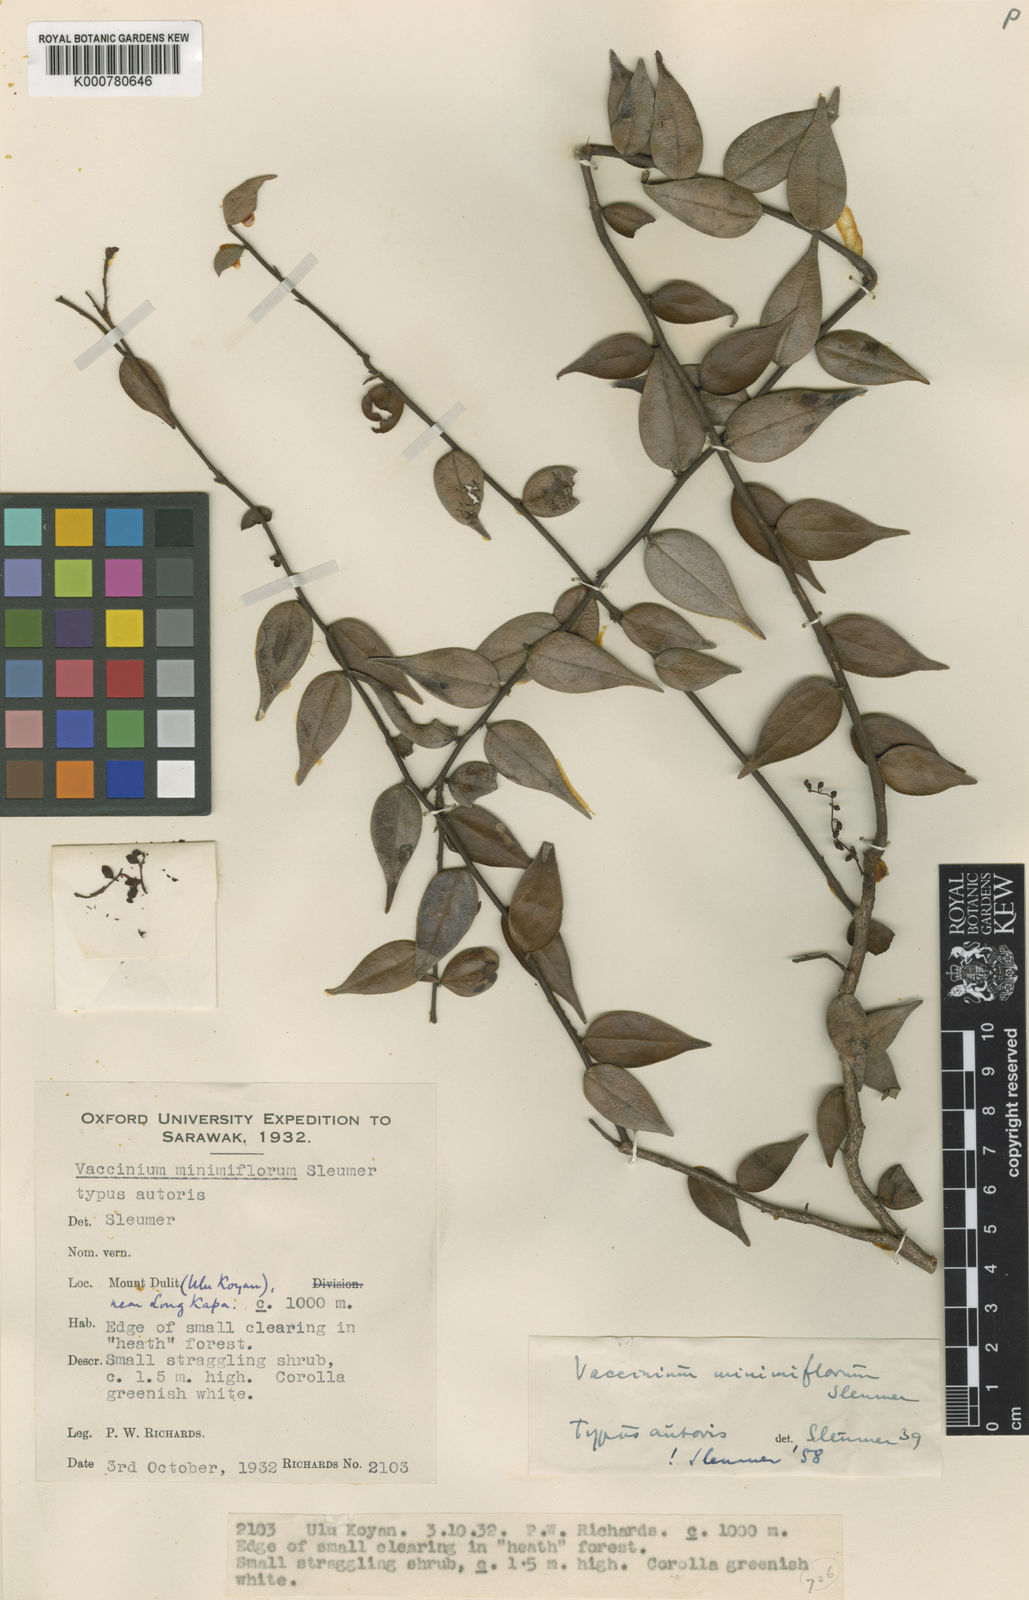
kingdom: Plantae
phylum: Tracheophyta
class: Magnoliopsida
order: Ericales
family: Ericaceae
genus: Rigiolepis
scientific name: Rigiolepis minimiflora
